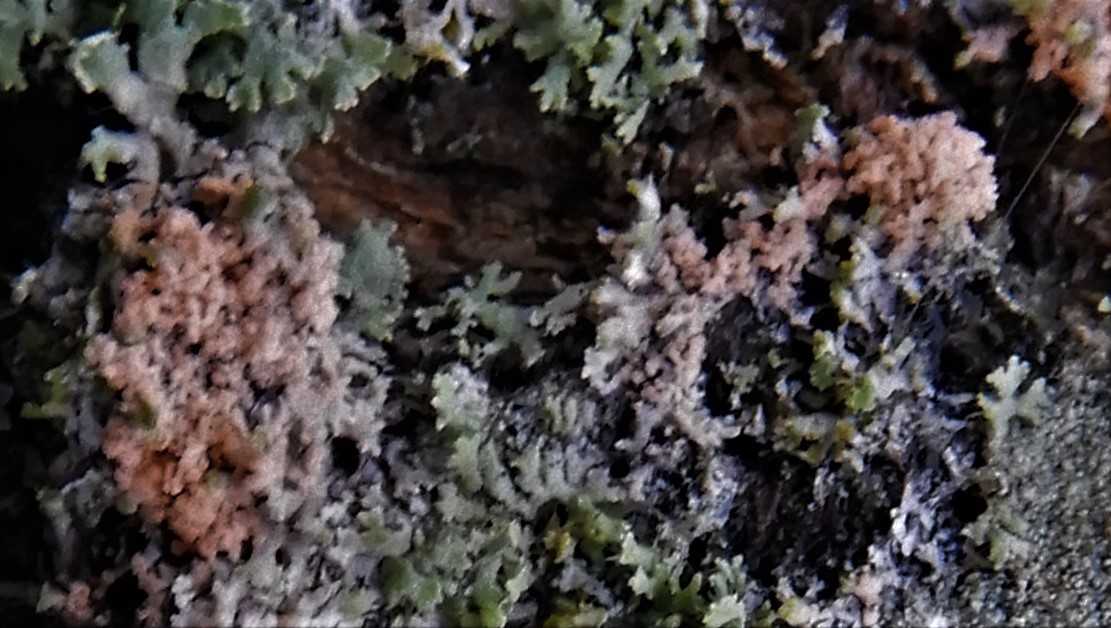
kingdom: Fungi
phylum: Basidiomycota
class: Agaricomycetes
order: Corticiales
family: Corticiaceae
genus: Erythricium
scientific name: Erythricium aurantiacum
